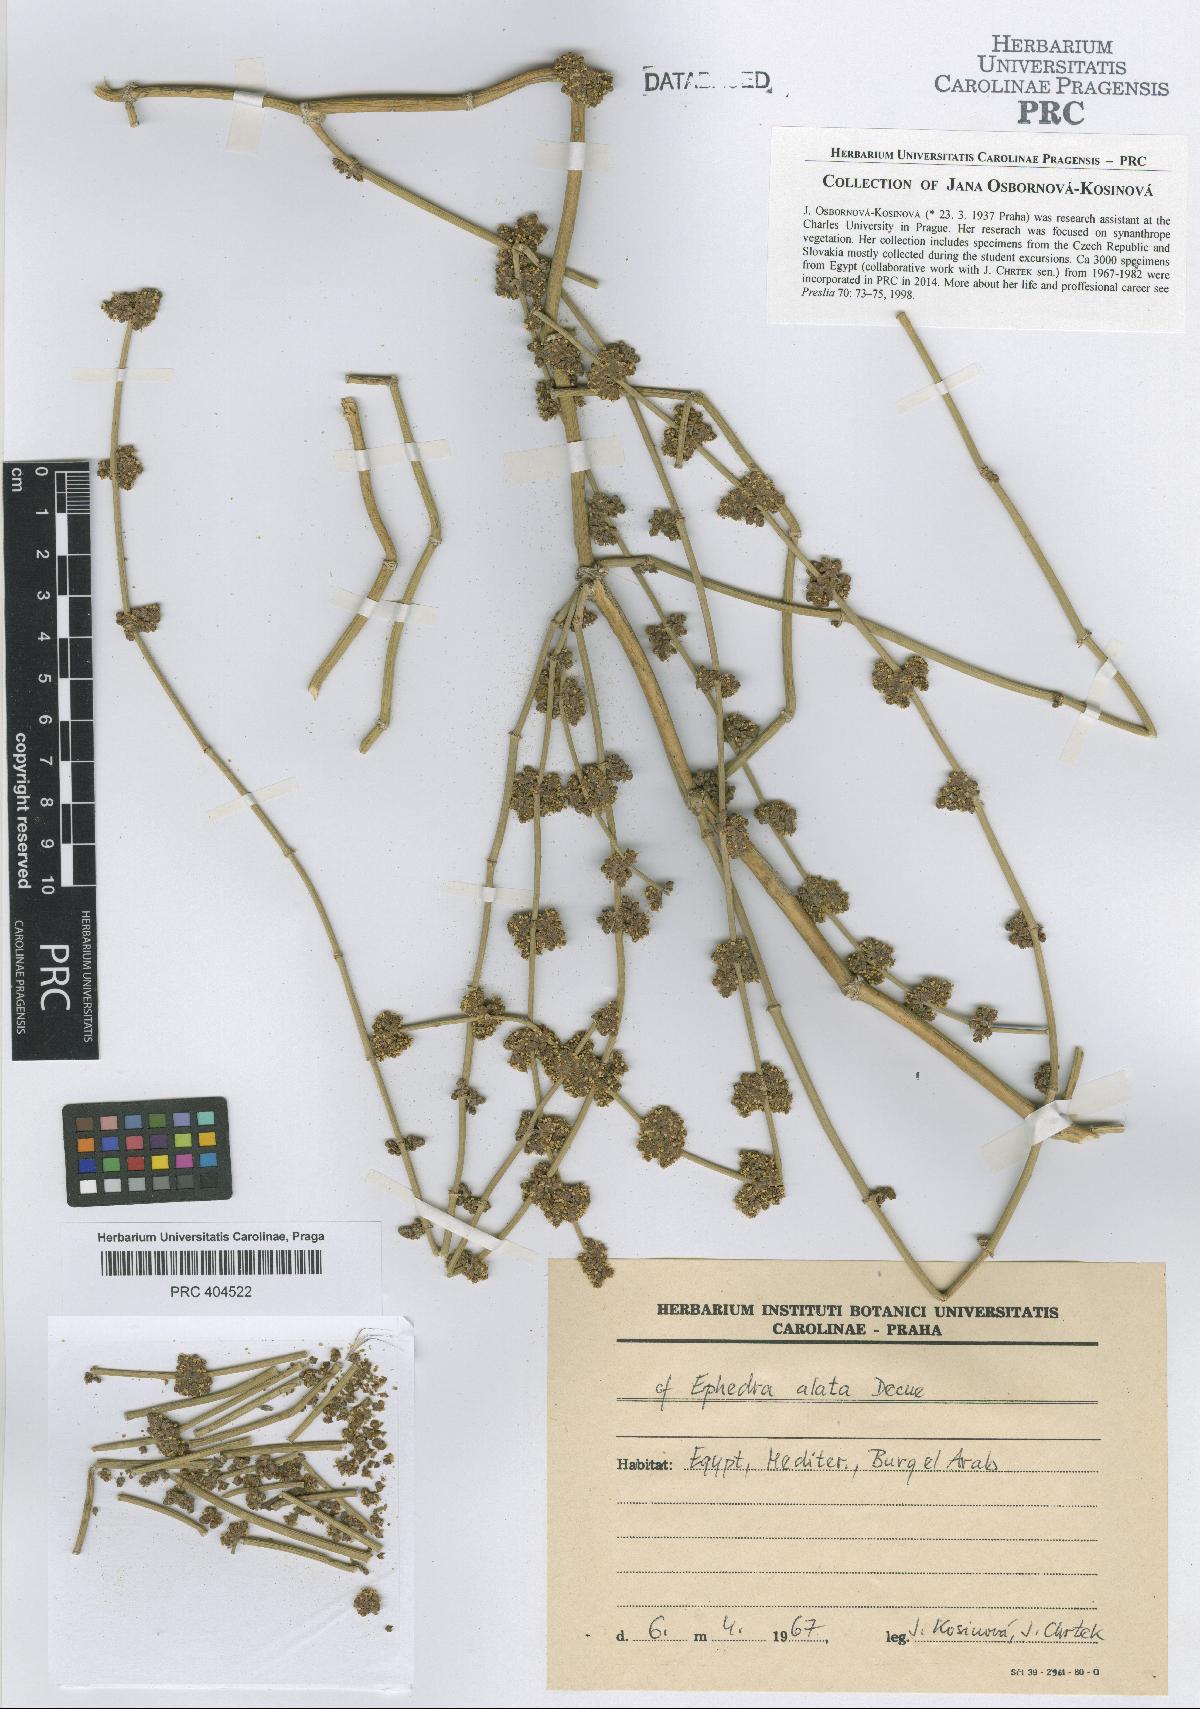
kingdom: Plantae
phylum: Tracheophyta
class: Gnetopsida
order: Ephedrales
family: Ephedraceae
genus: Ephedra
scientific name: Ephedra alata
